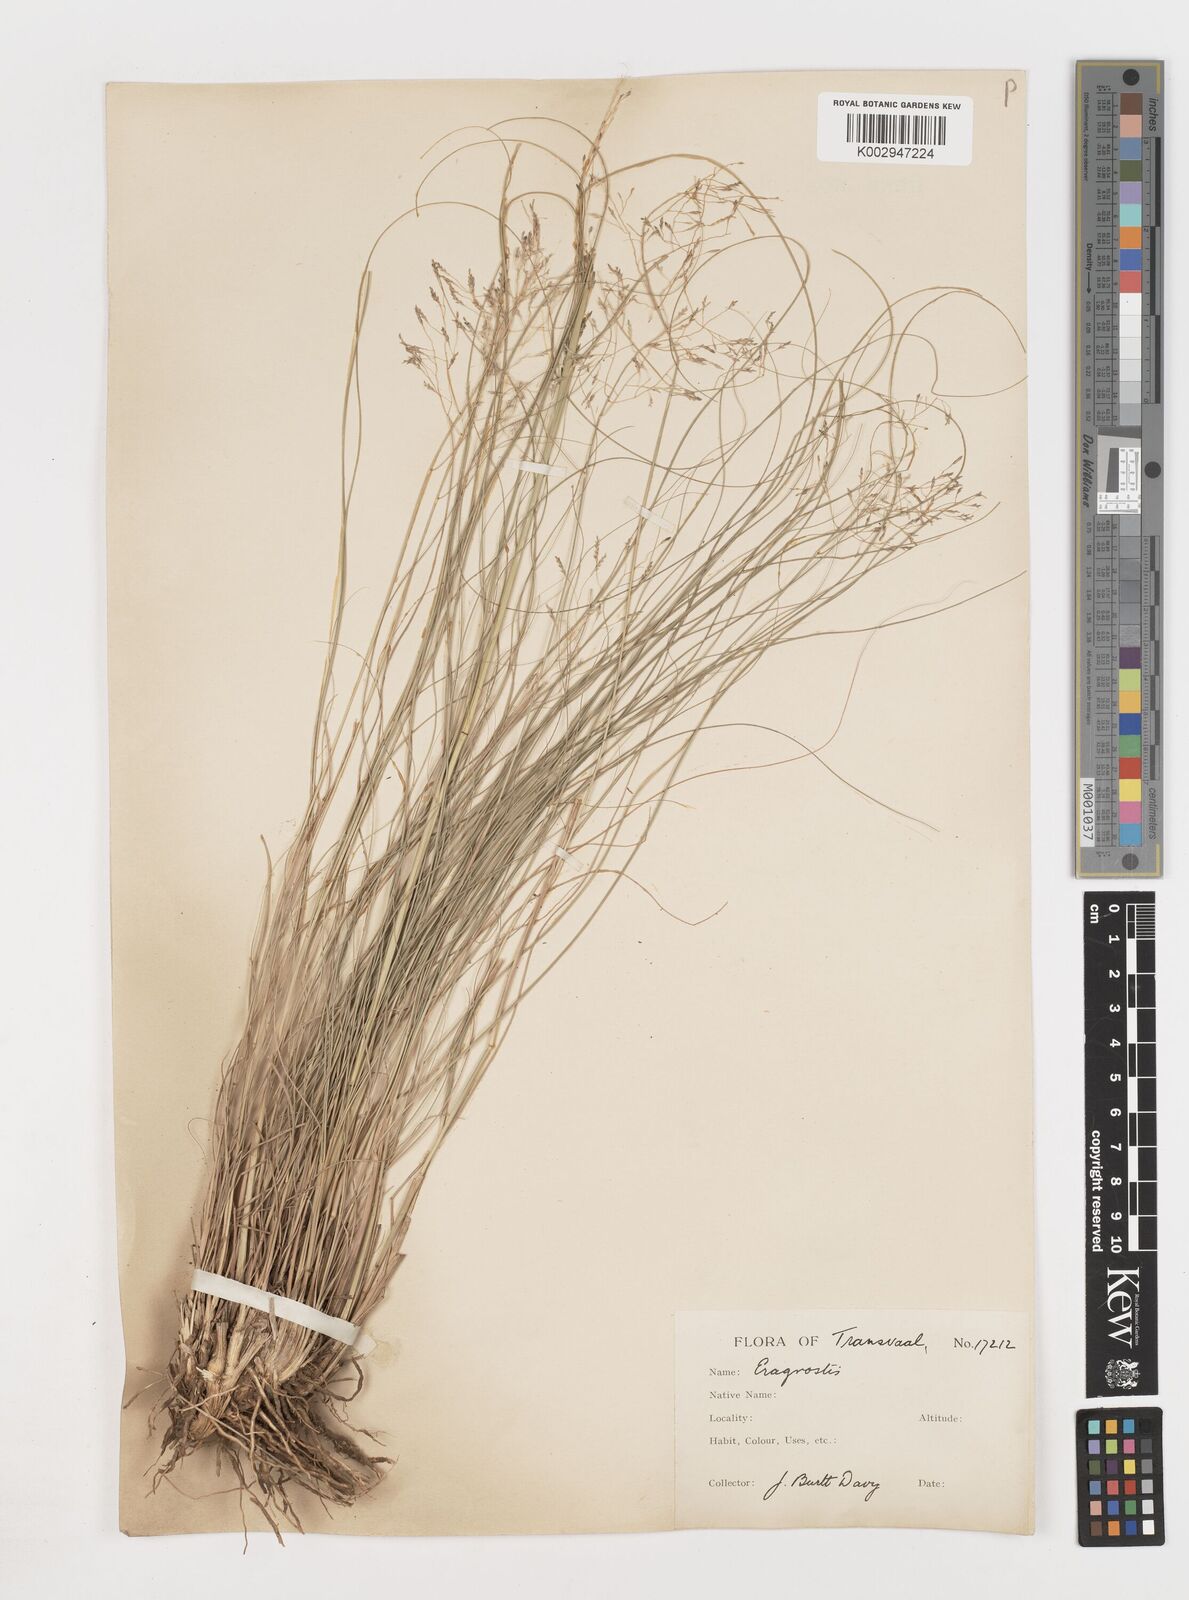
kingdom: Plantae
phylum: Tracheophyta
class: Liliopsida
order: Poales
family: Poaceae
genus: Eragrostis
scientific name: Eragrostis
